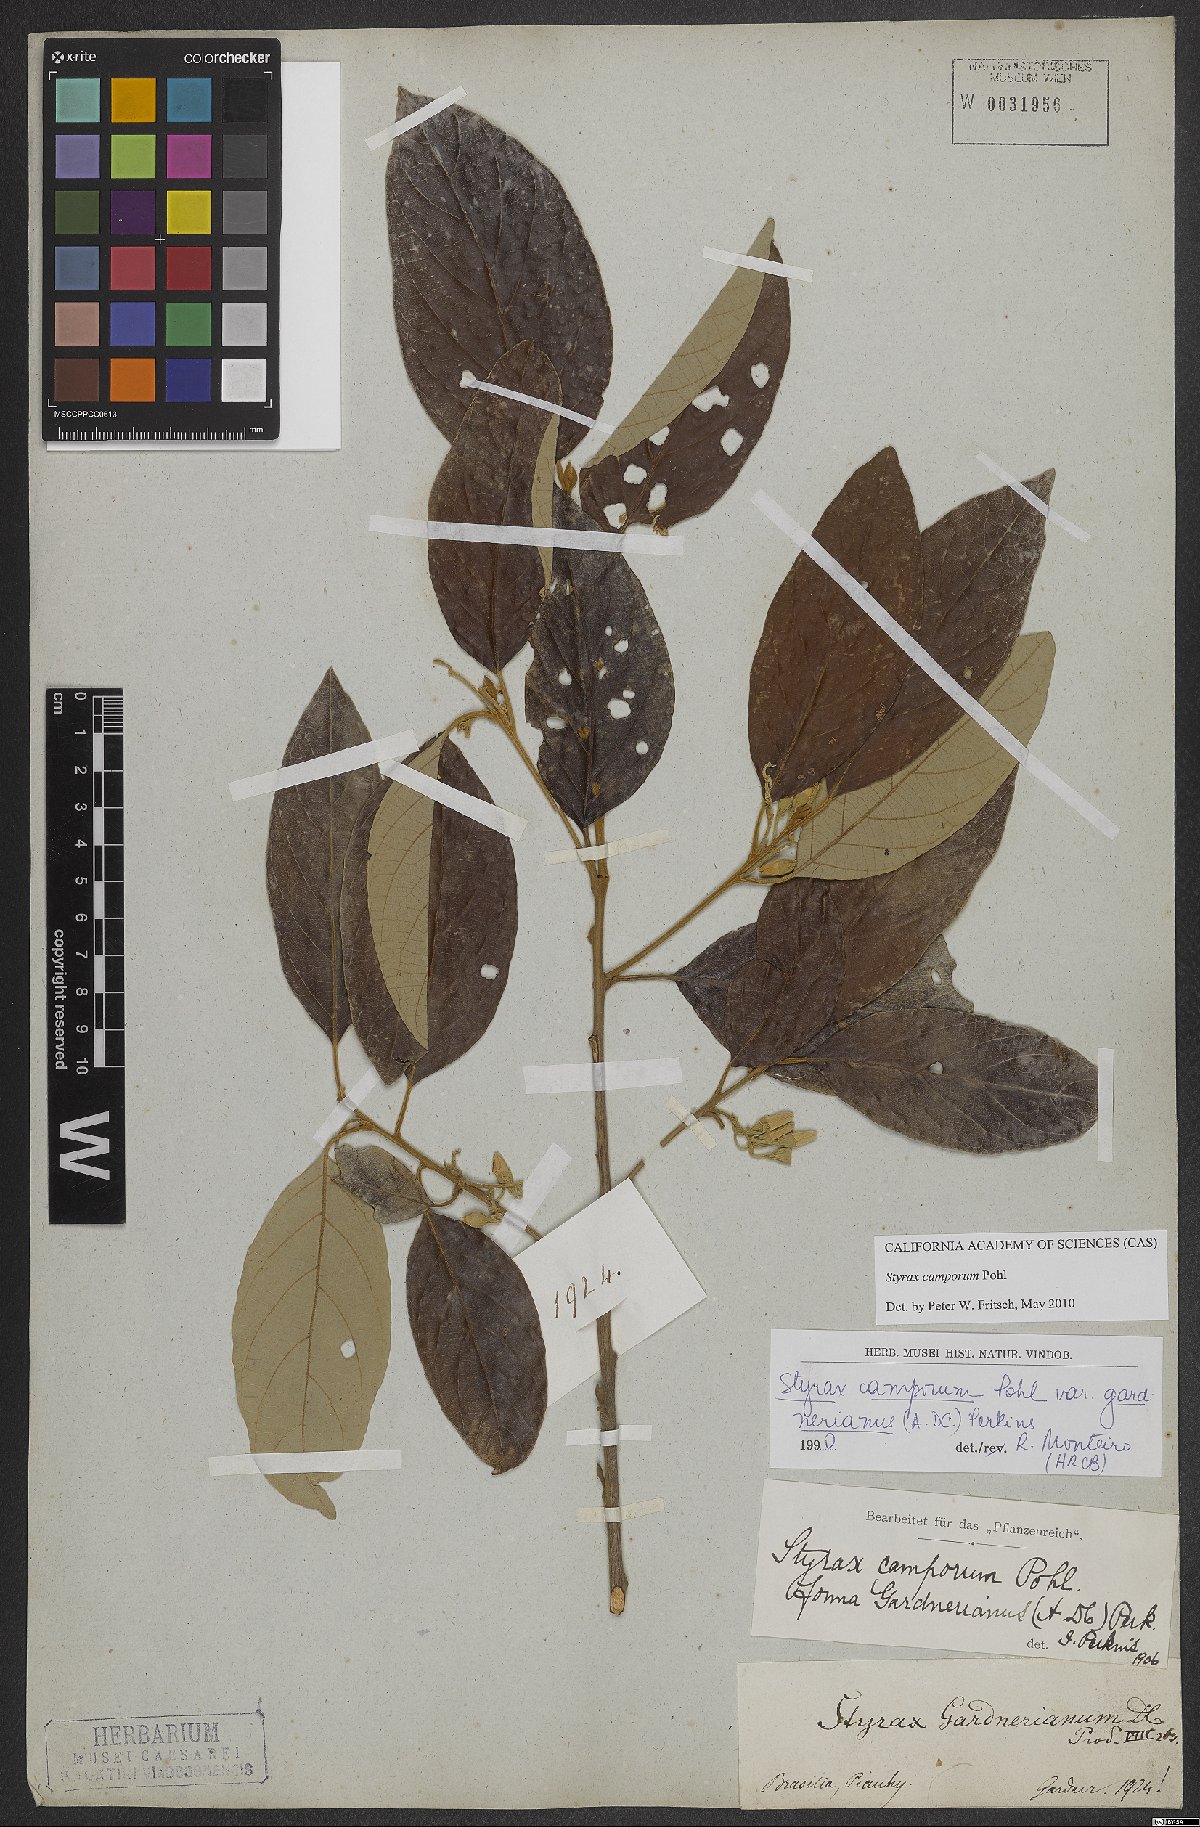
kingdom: Plantae
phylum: Tracheophyta
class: Magnoliopsida
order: Ericales
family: Styracaceae
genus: Styrax
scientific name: Styrax camporum
